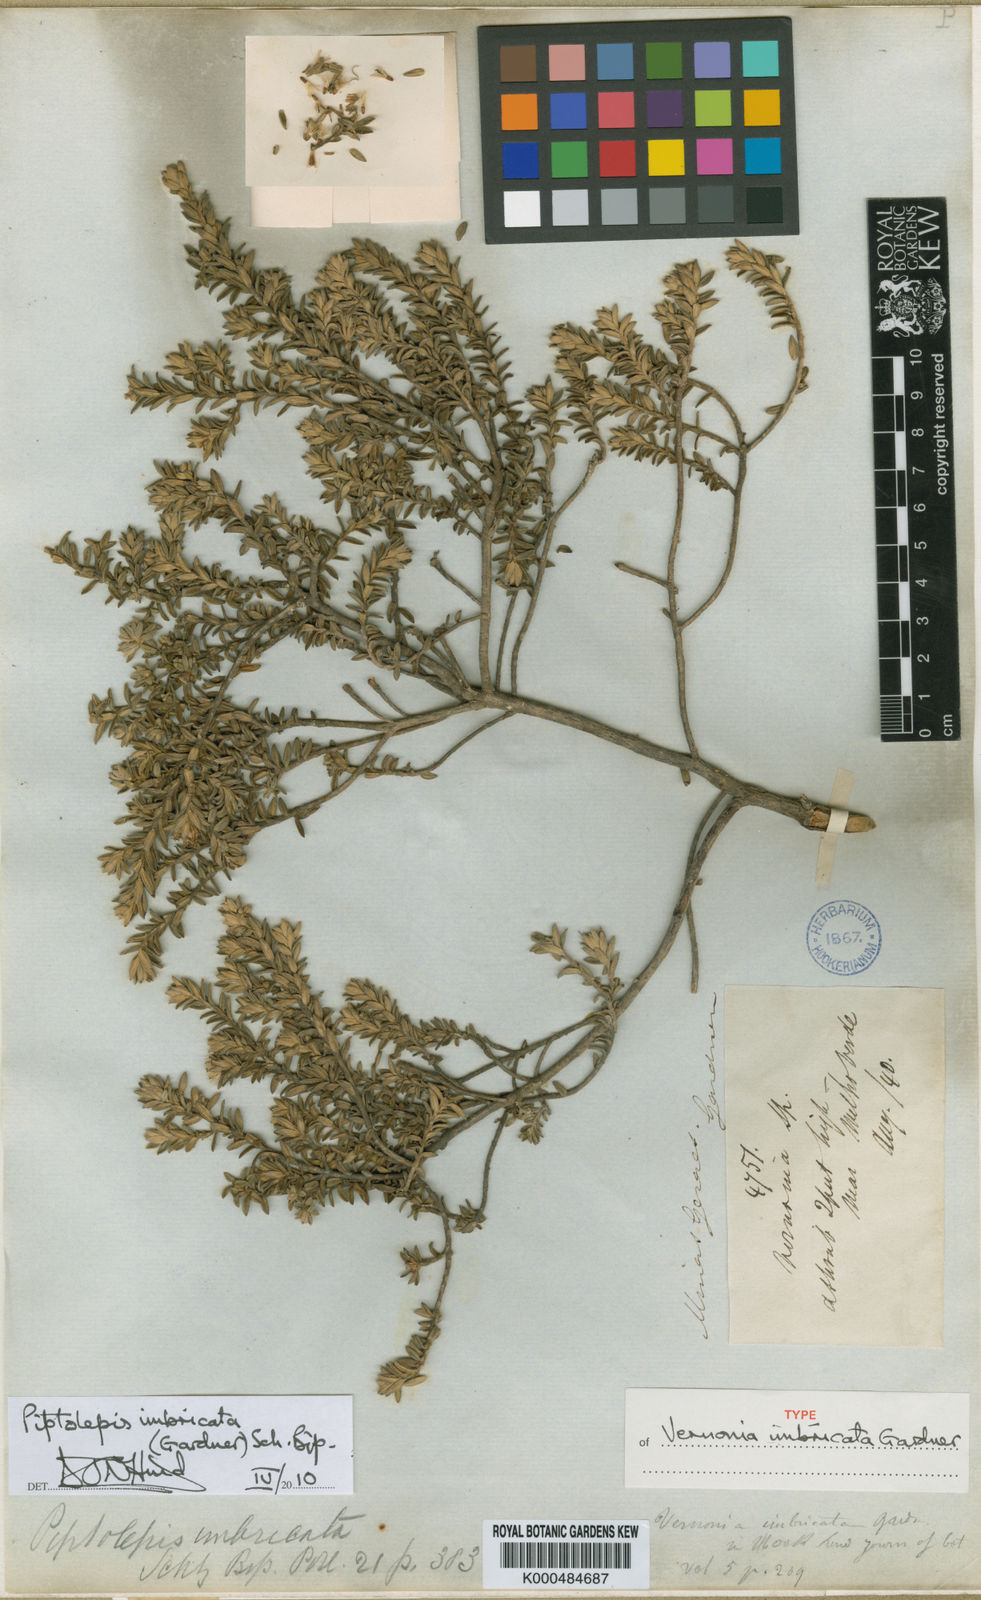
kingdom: Plantae
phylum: Tracheophyta
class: Magnoliopsida
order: Asterales
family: Asteraceae
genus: Piptolepis
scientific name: Piptolepis imbricata
